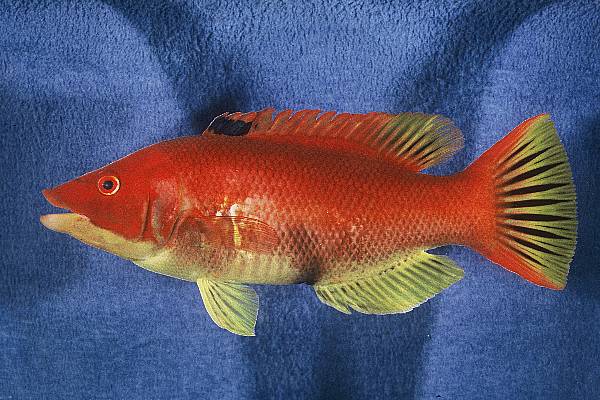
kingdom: Animalia
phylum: Chordata
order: Perciformes
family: Labridae
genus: Bodianus
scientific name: Bodianus scrofa
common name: Barred hogfish
